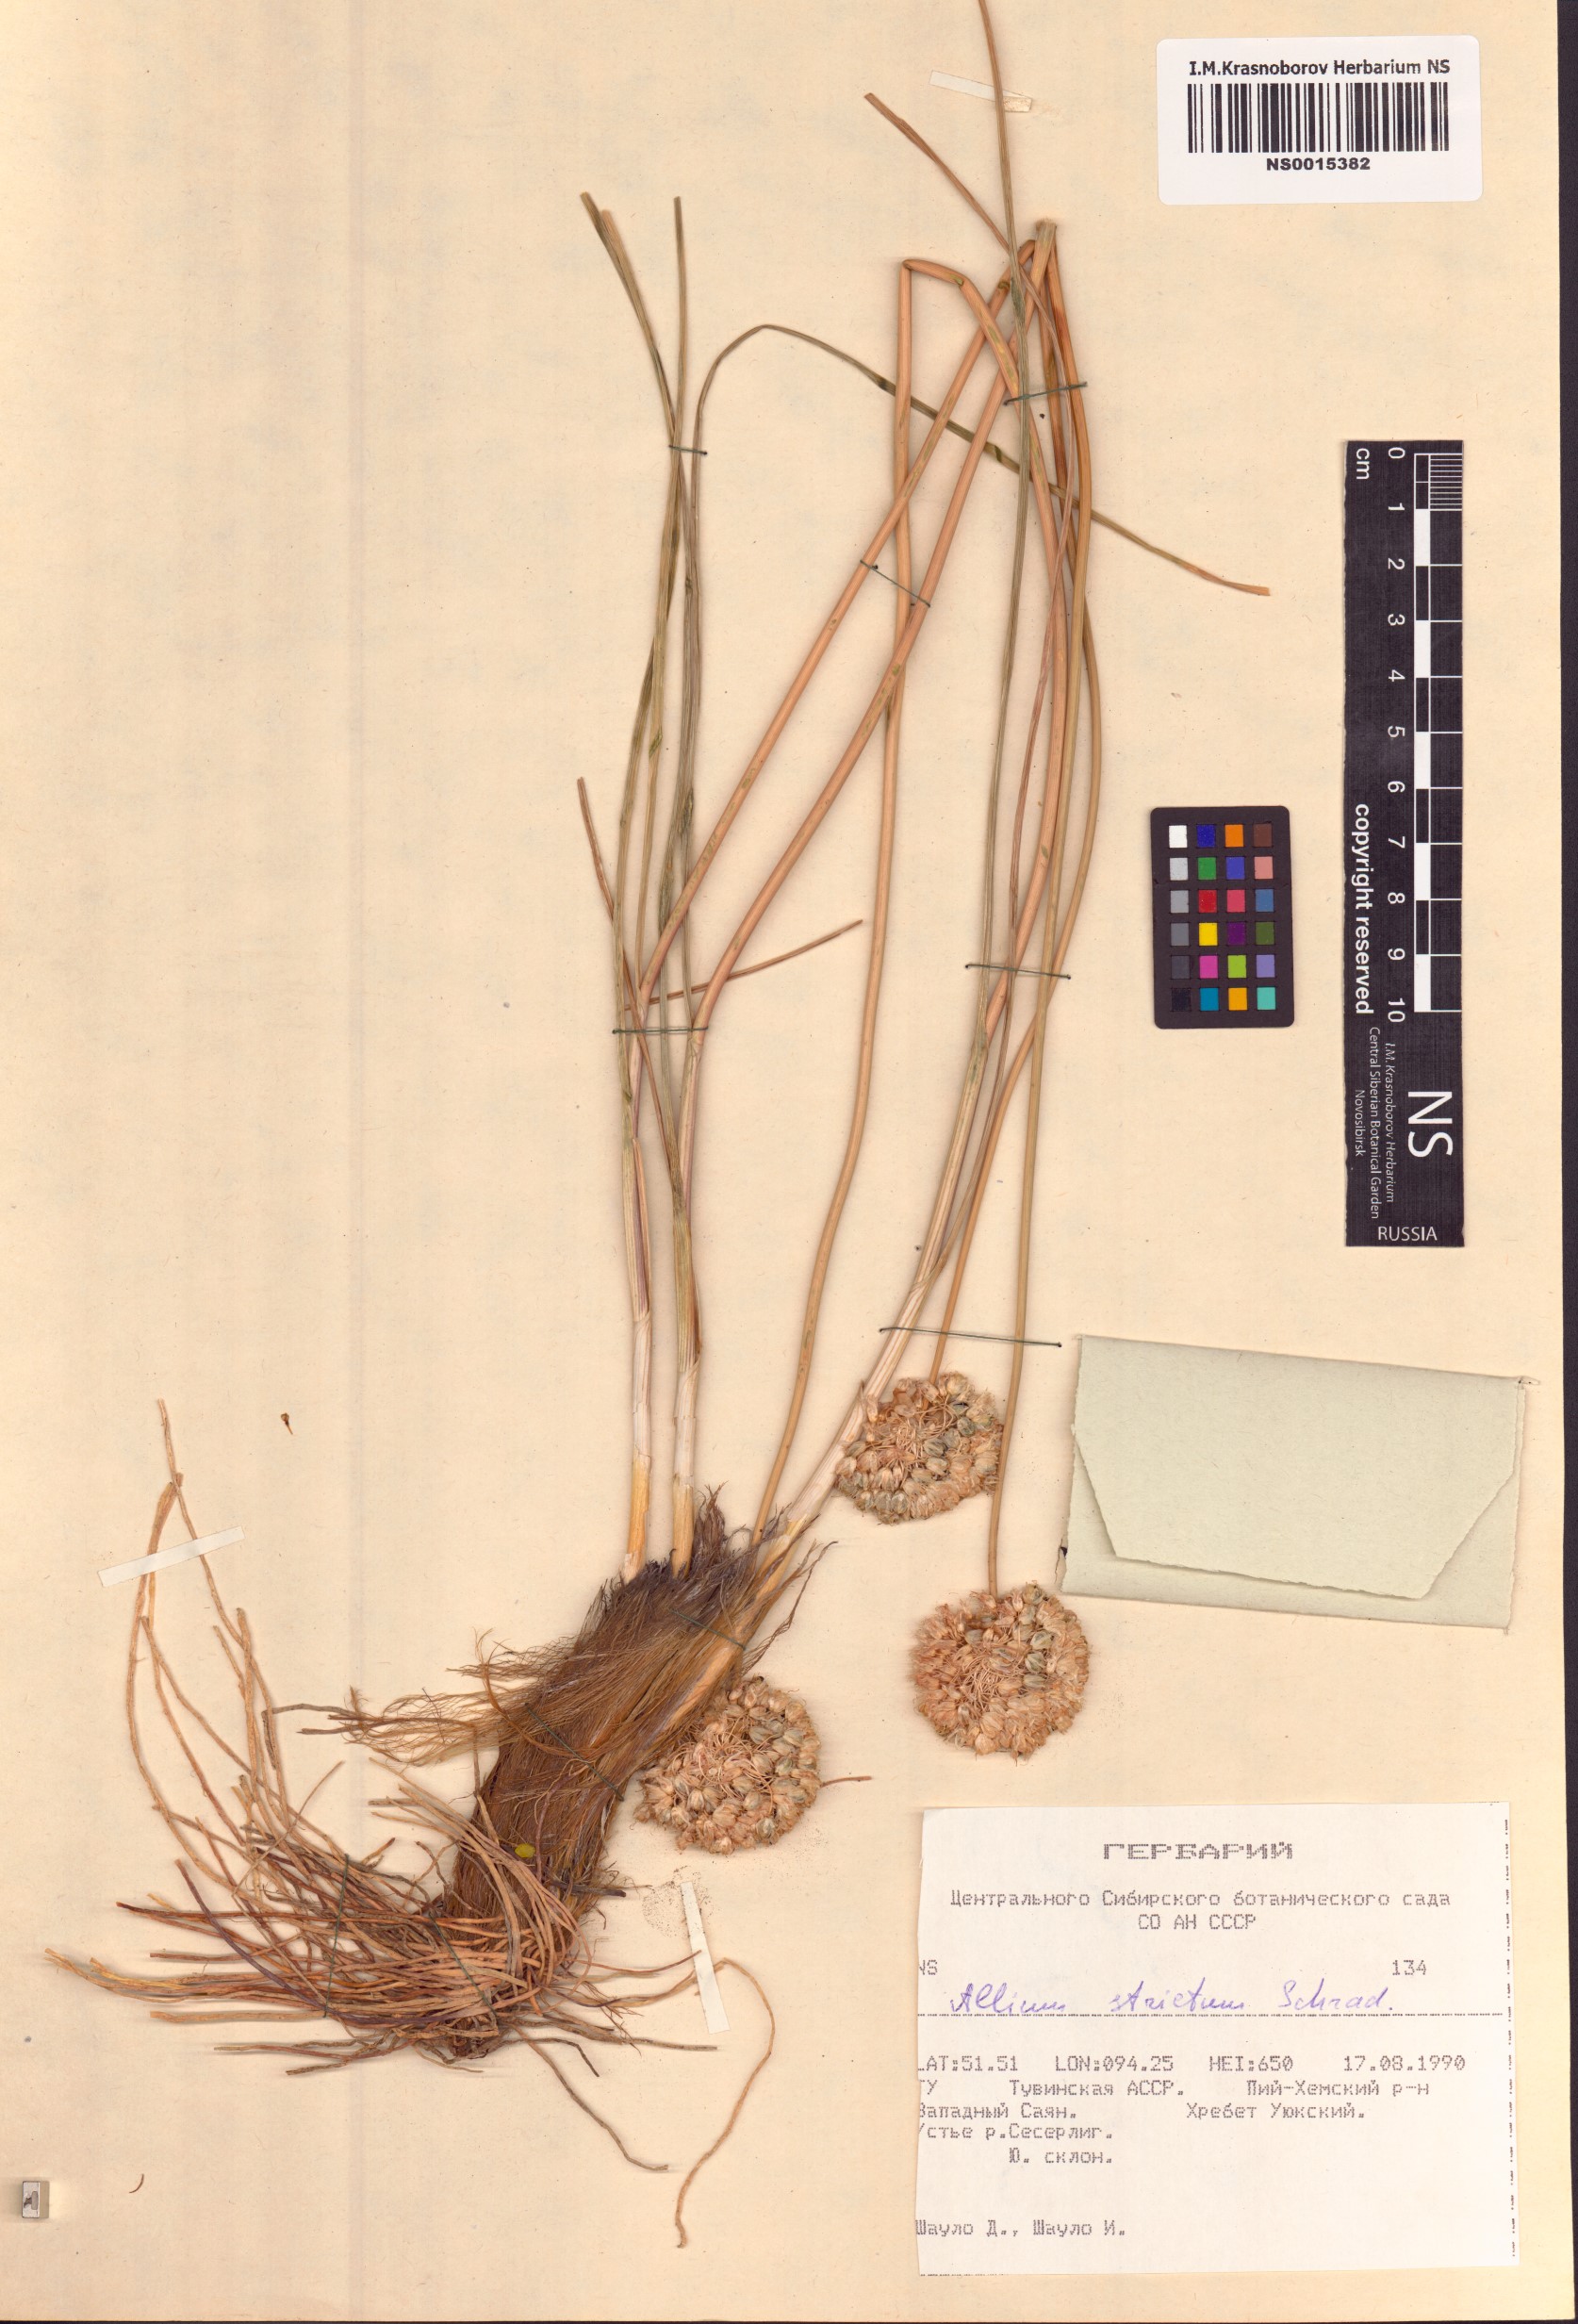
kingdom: Plantae
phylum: Tracheophyta
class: Liliopsida
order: Asparagales
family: Amaryllidaceae
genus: Allium
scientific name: Allium strictum
